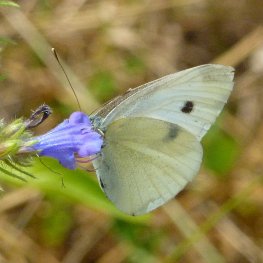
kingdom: Animalia
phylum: Arthropoda
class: Insecta
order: Lepidoptera
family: Pieridae
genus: Pieris
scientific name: Pieris rapae
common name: Cabbage White
